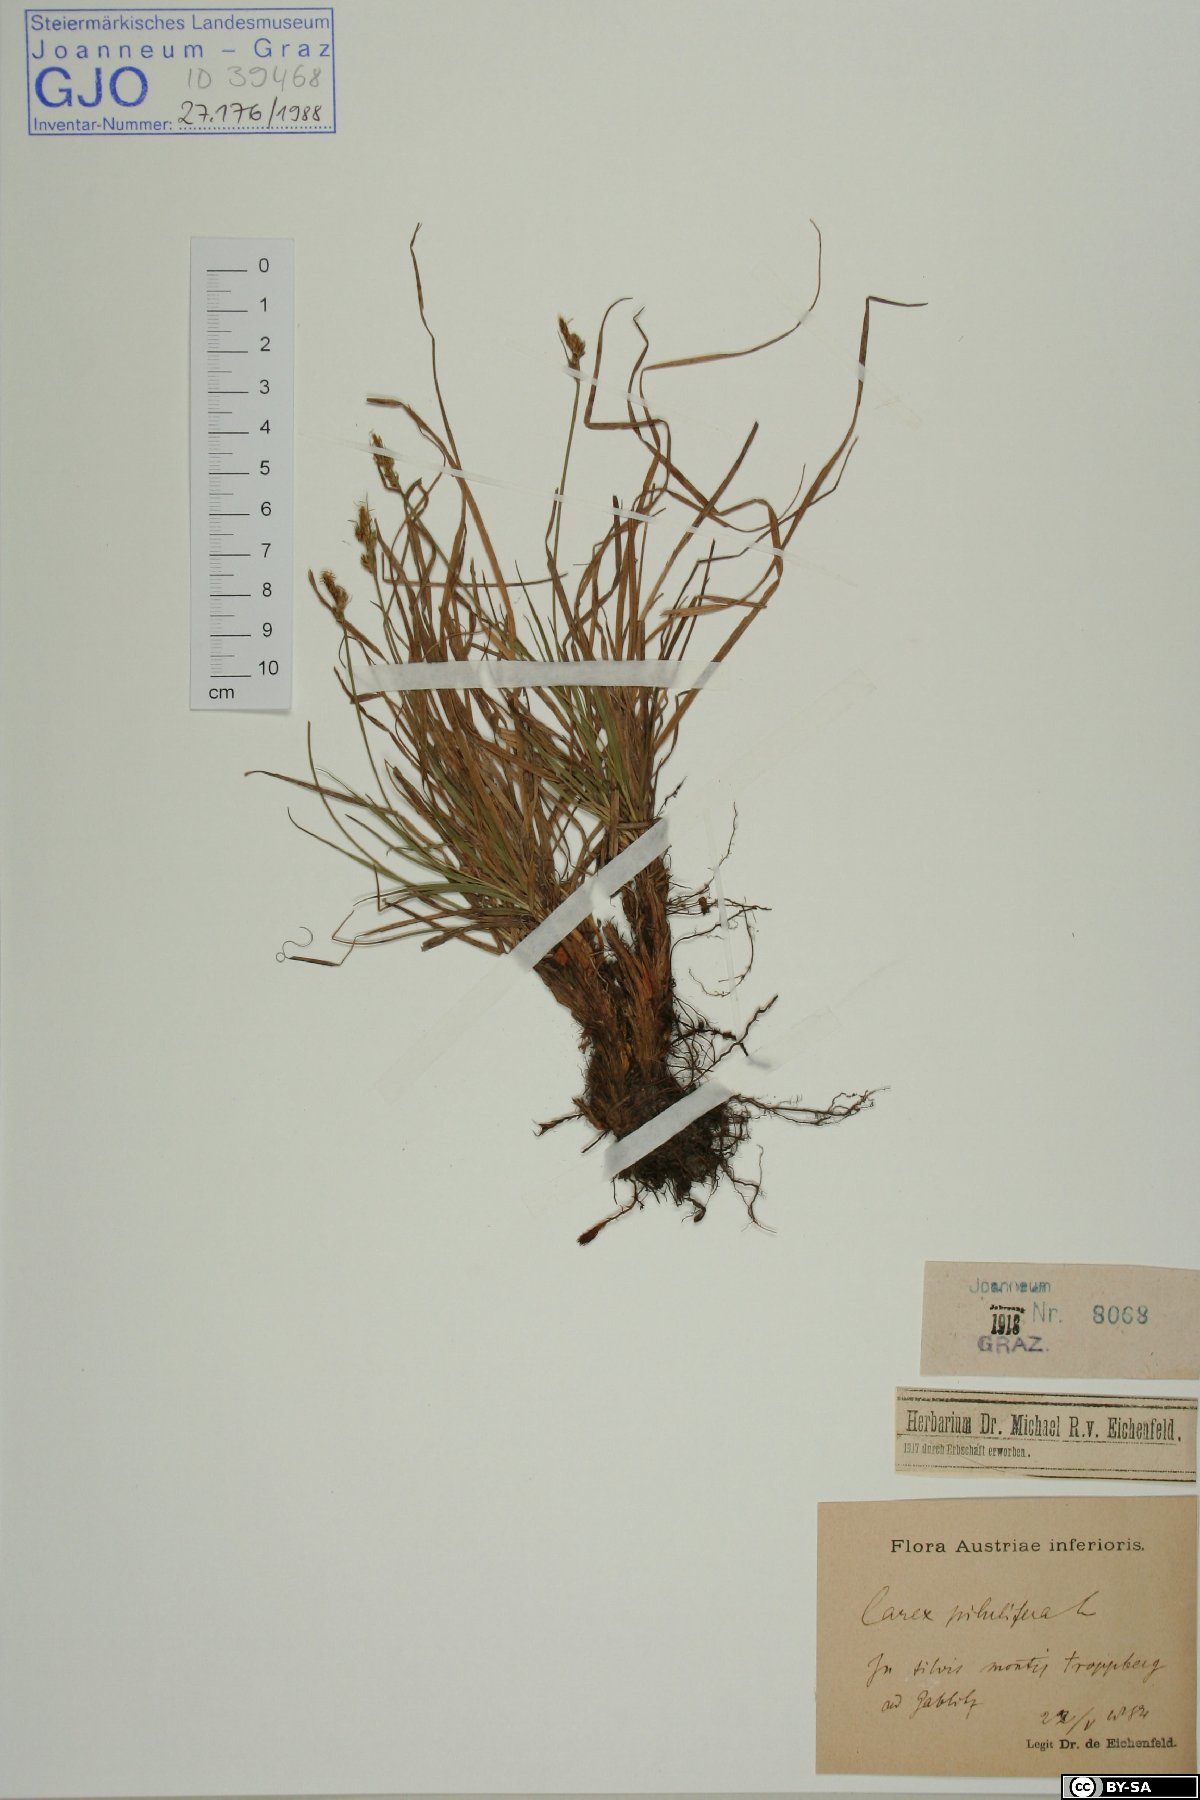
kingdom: Plantae
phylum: Tracheophyta
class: Liliopsida
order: Poales
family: Cyperaceae
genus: Carex
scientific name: Carex pilulifera
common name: Pill sedge
